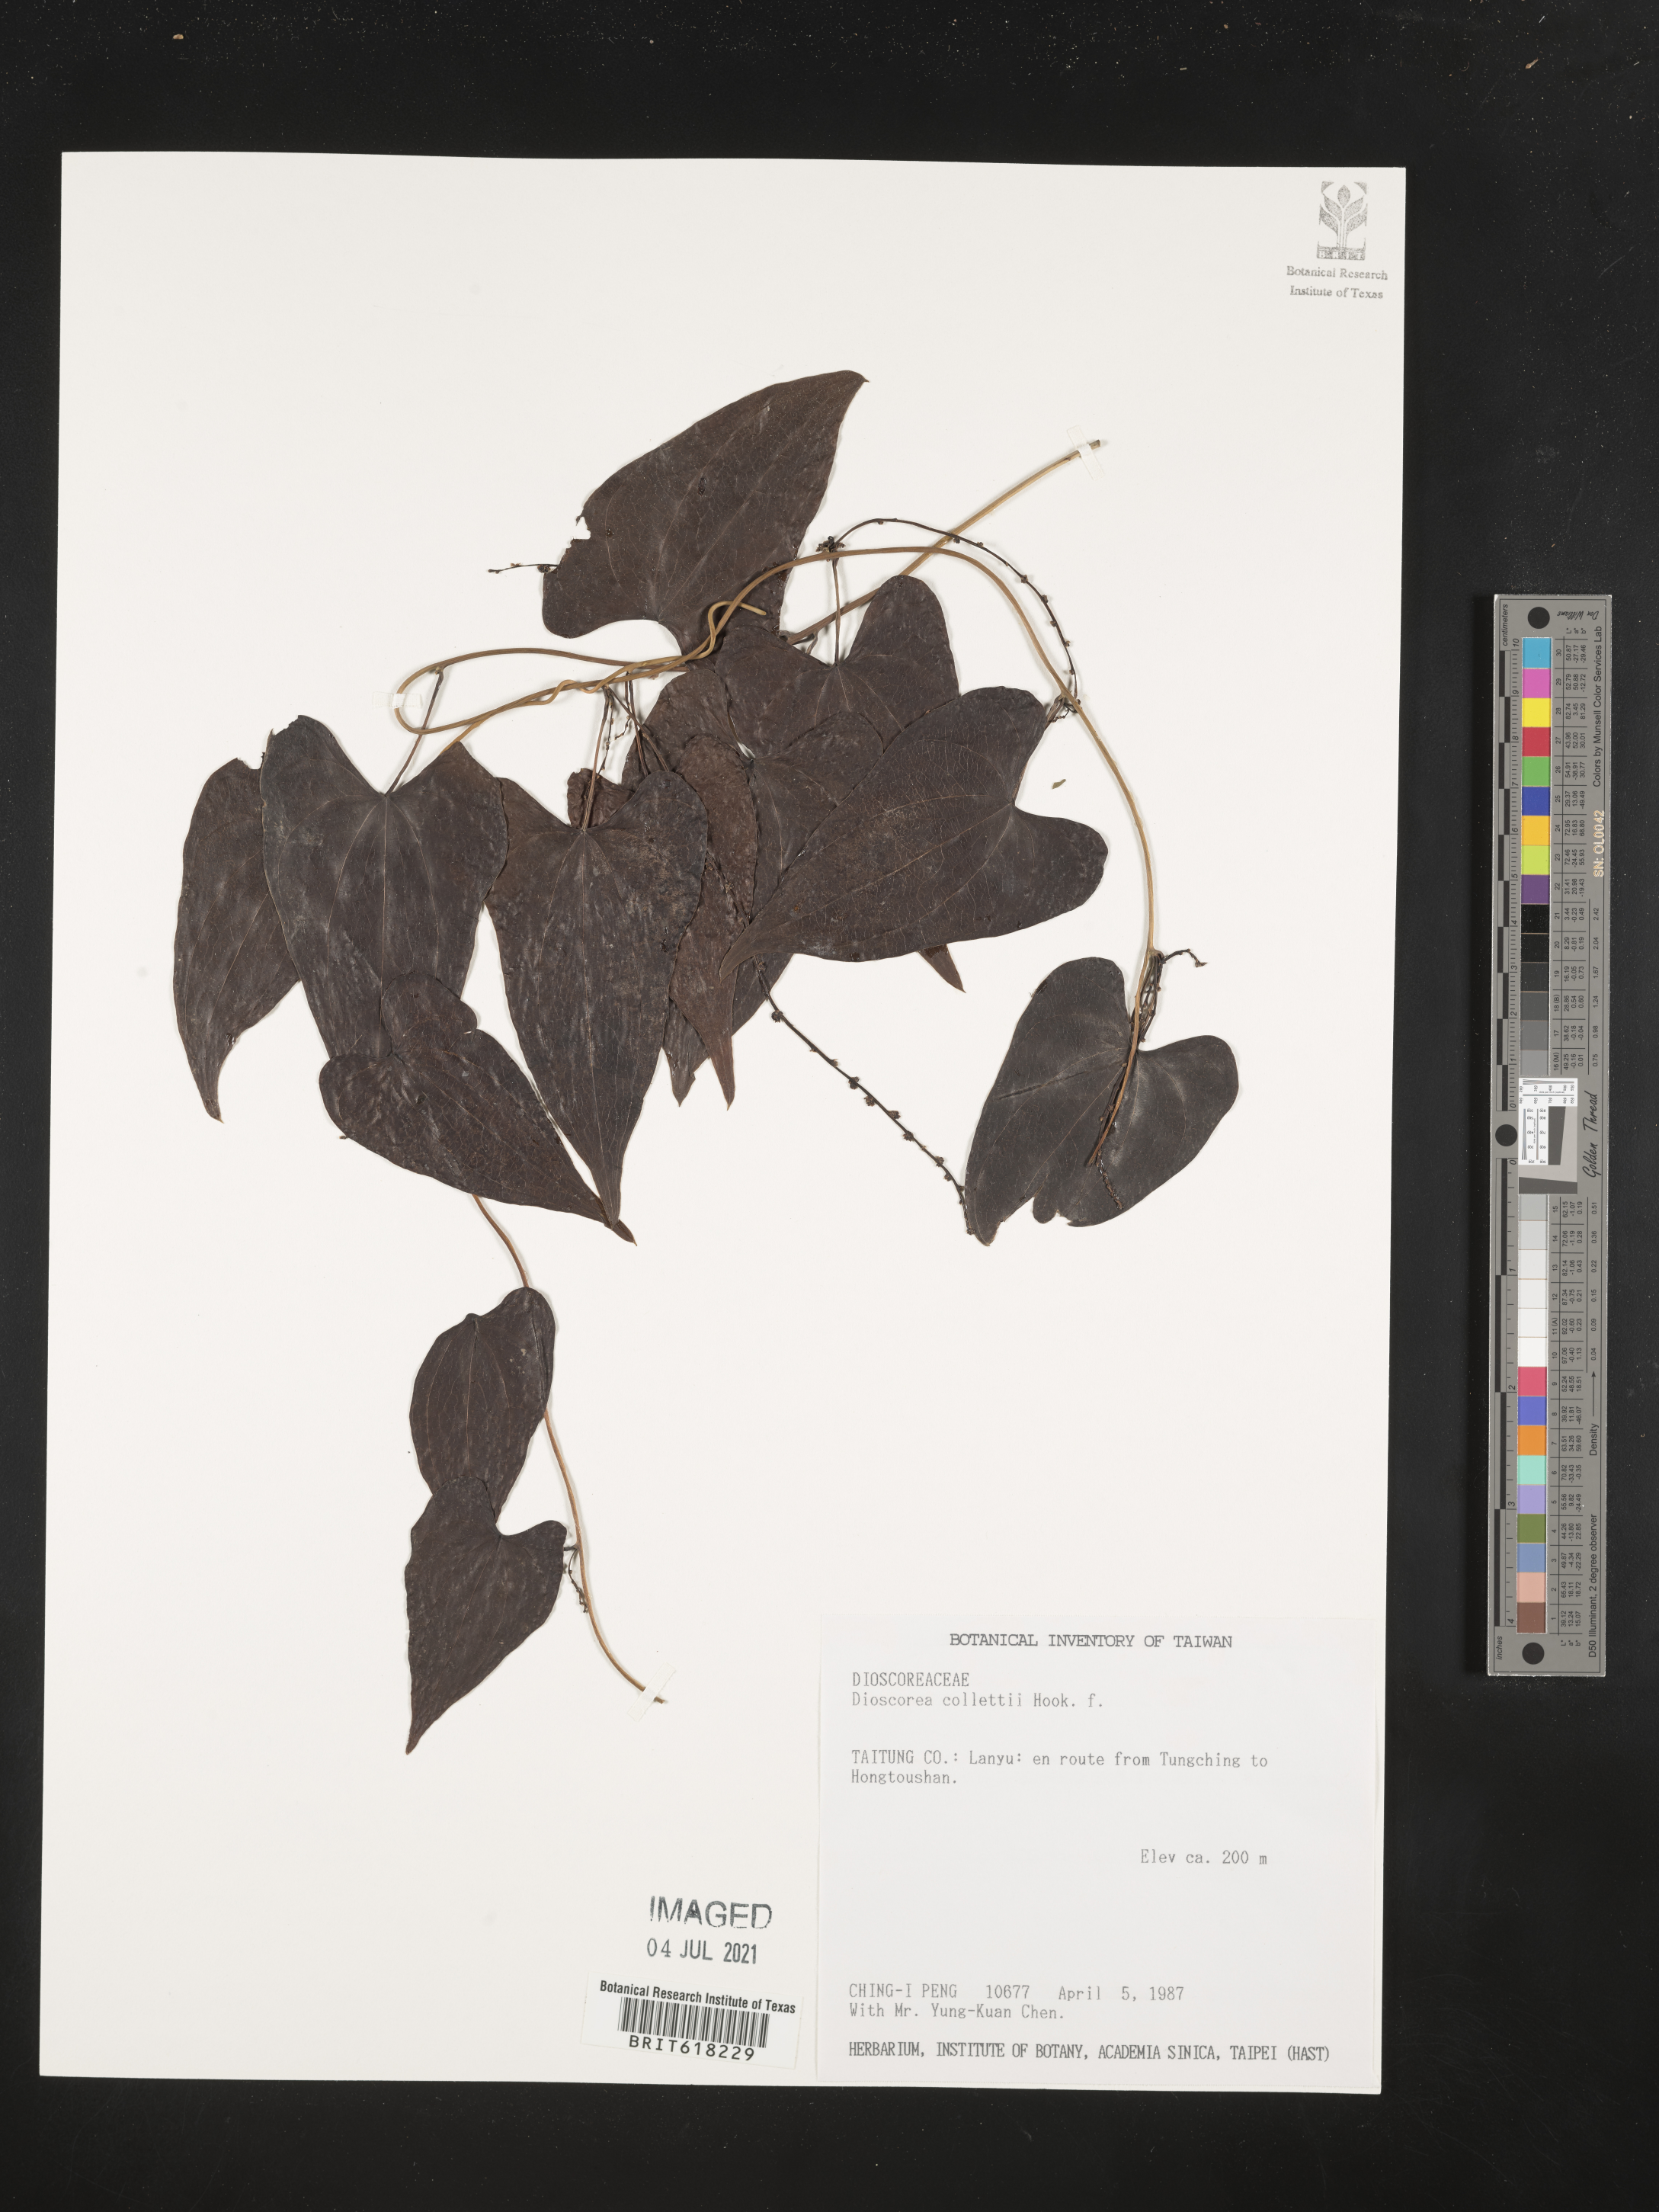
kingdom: Plantae
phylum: Tracheophyta
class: Liliopsida
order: Dioscoreales
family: Dioscoreaceae
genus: Dioscorea
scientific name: Dioscorea collettii
